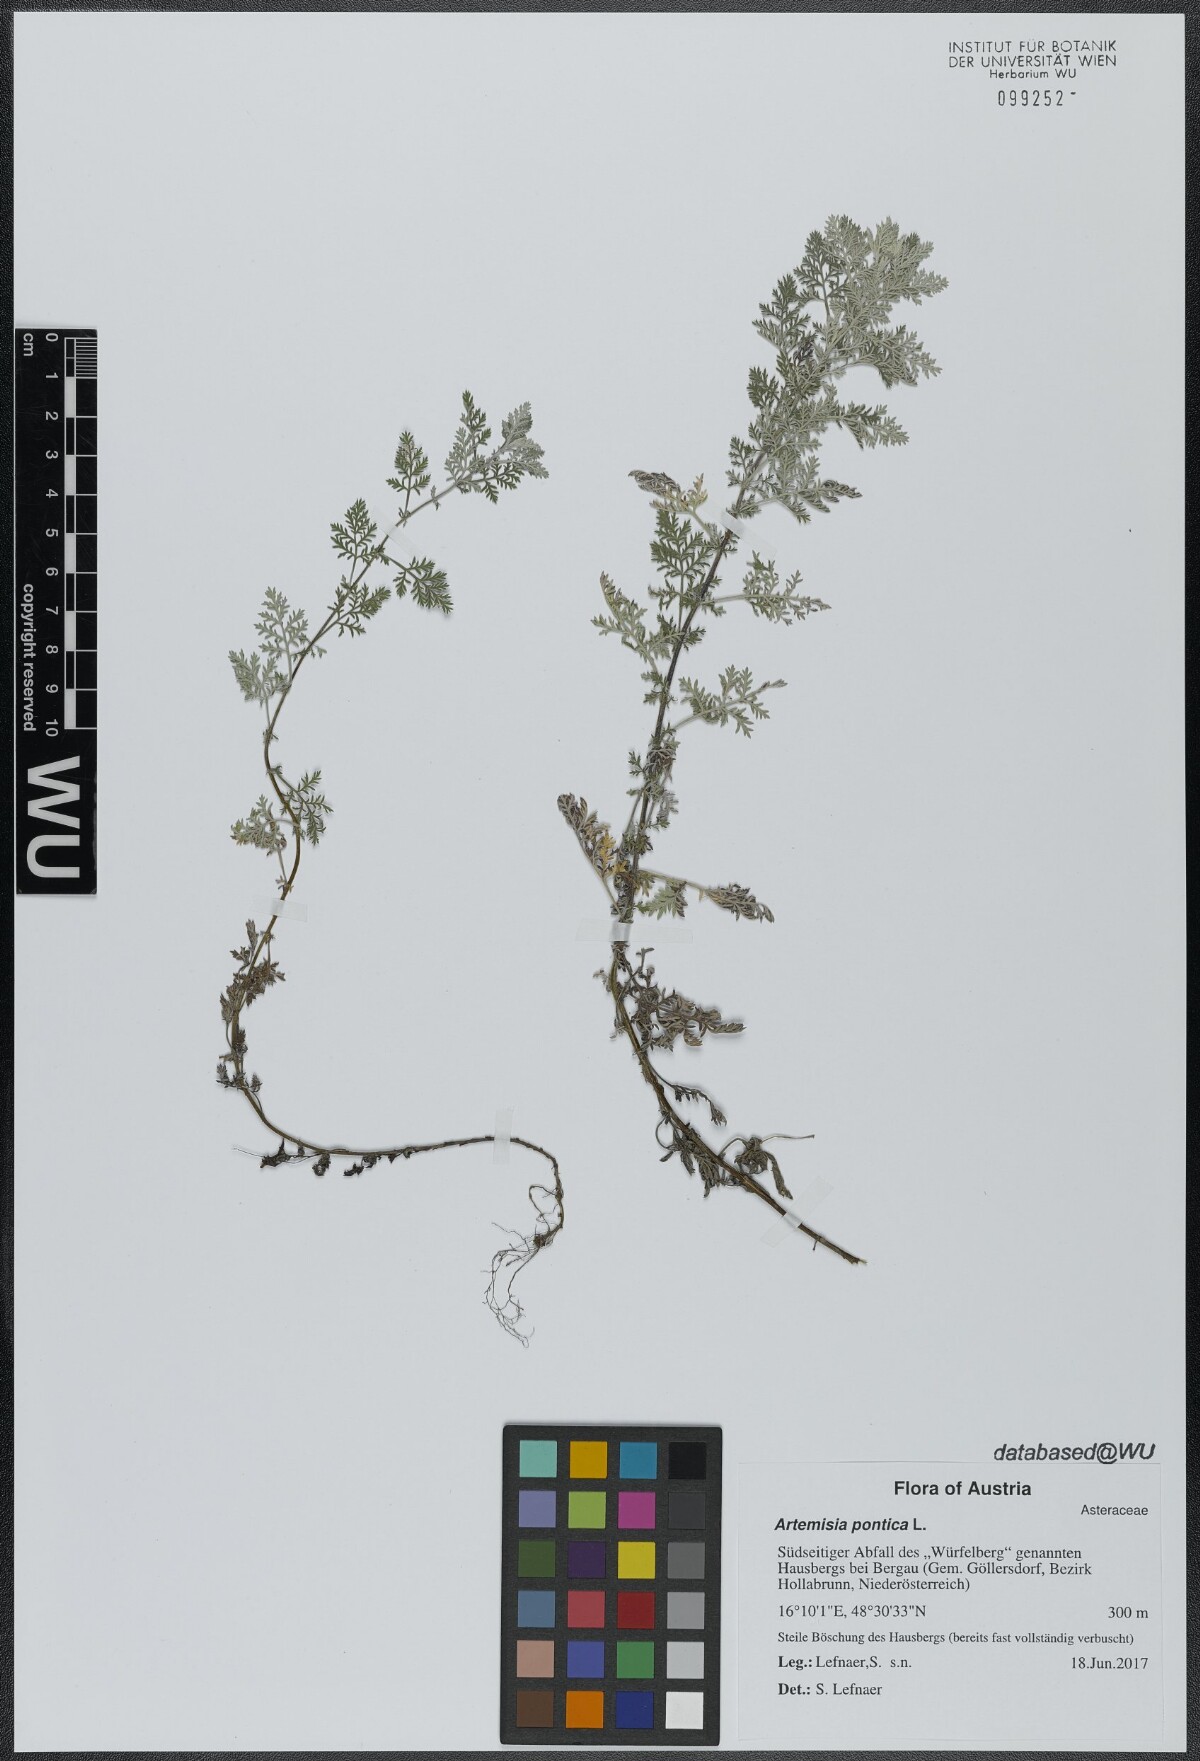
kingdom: Plantae
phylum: Tracheophyta
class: Magnoliopsida
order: Asterales
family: Asteraceae
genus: Artemisia
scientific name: Artemisia pontica
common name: Roman wormwood
